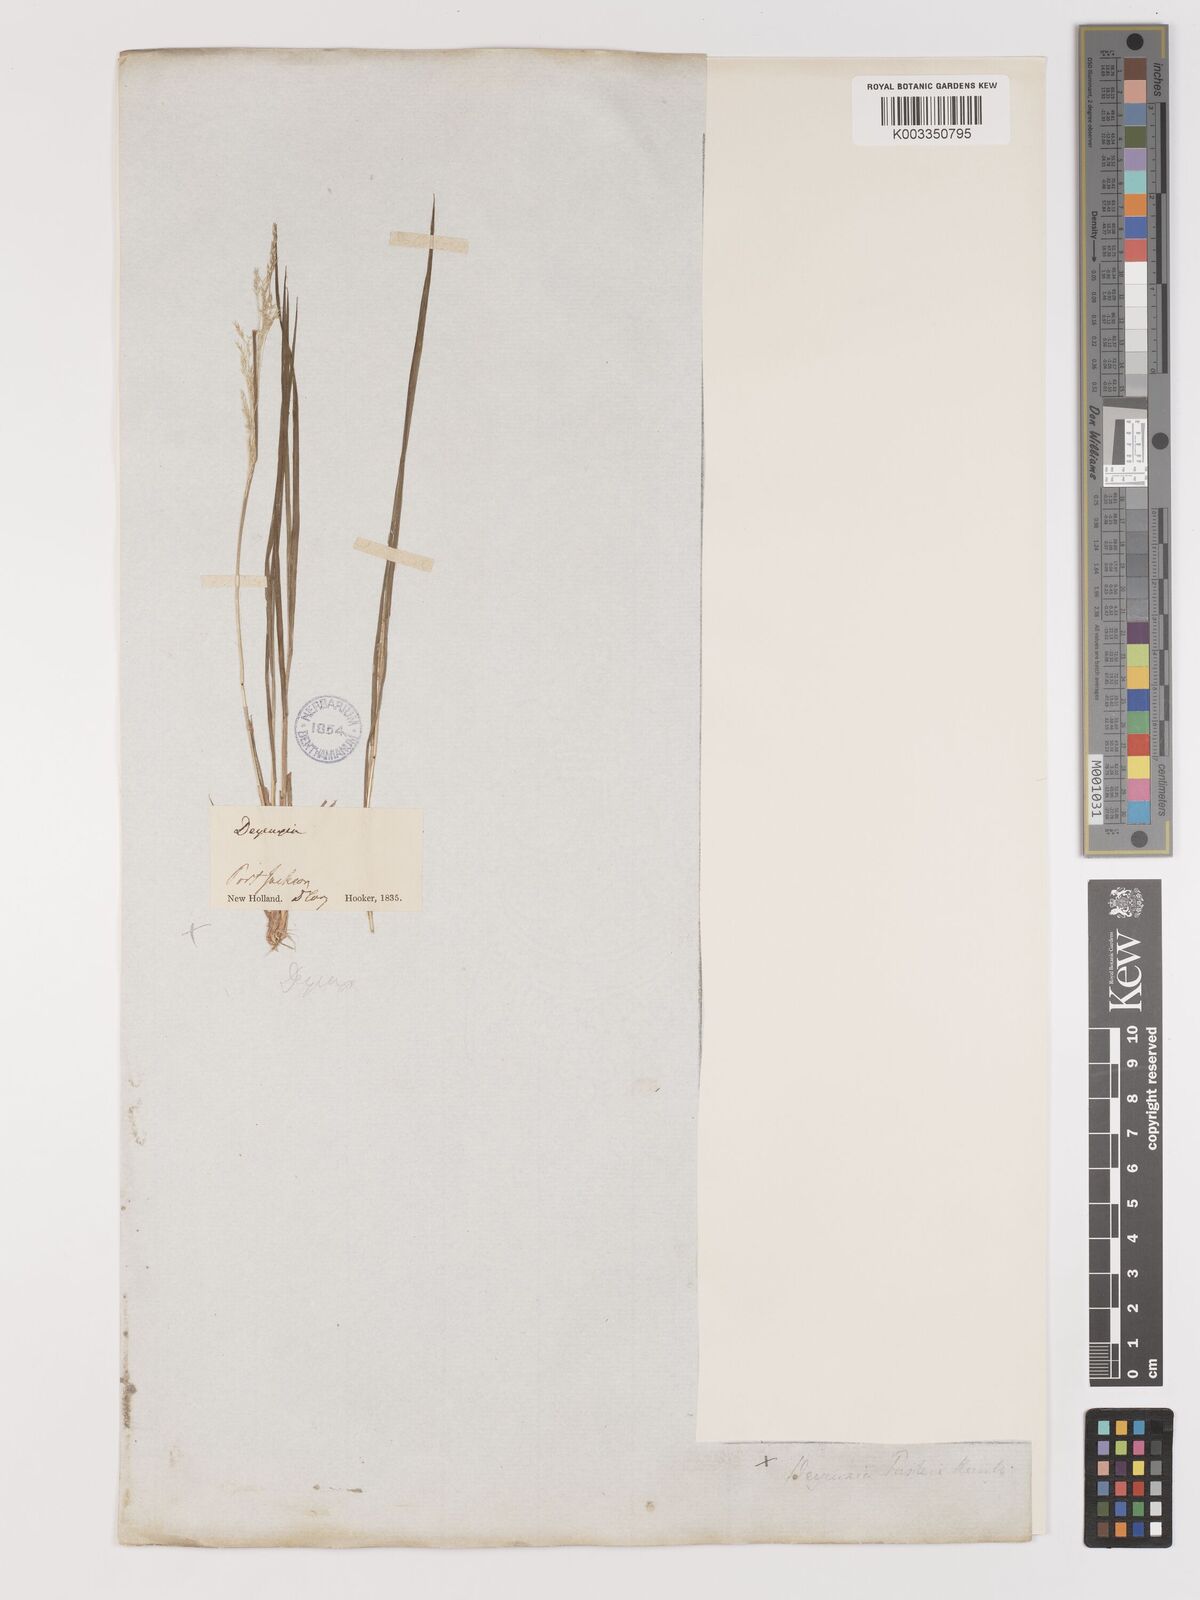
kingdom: Plantae
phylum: Tracheophyta
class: Liliopsida
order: Poales
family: Poaceae
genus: Lachnagrostis
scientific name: Lachnagrostis filiformis
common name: Bentgrass
